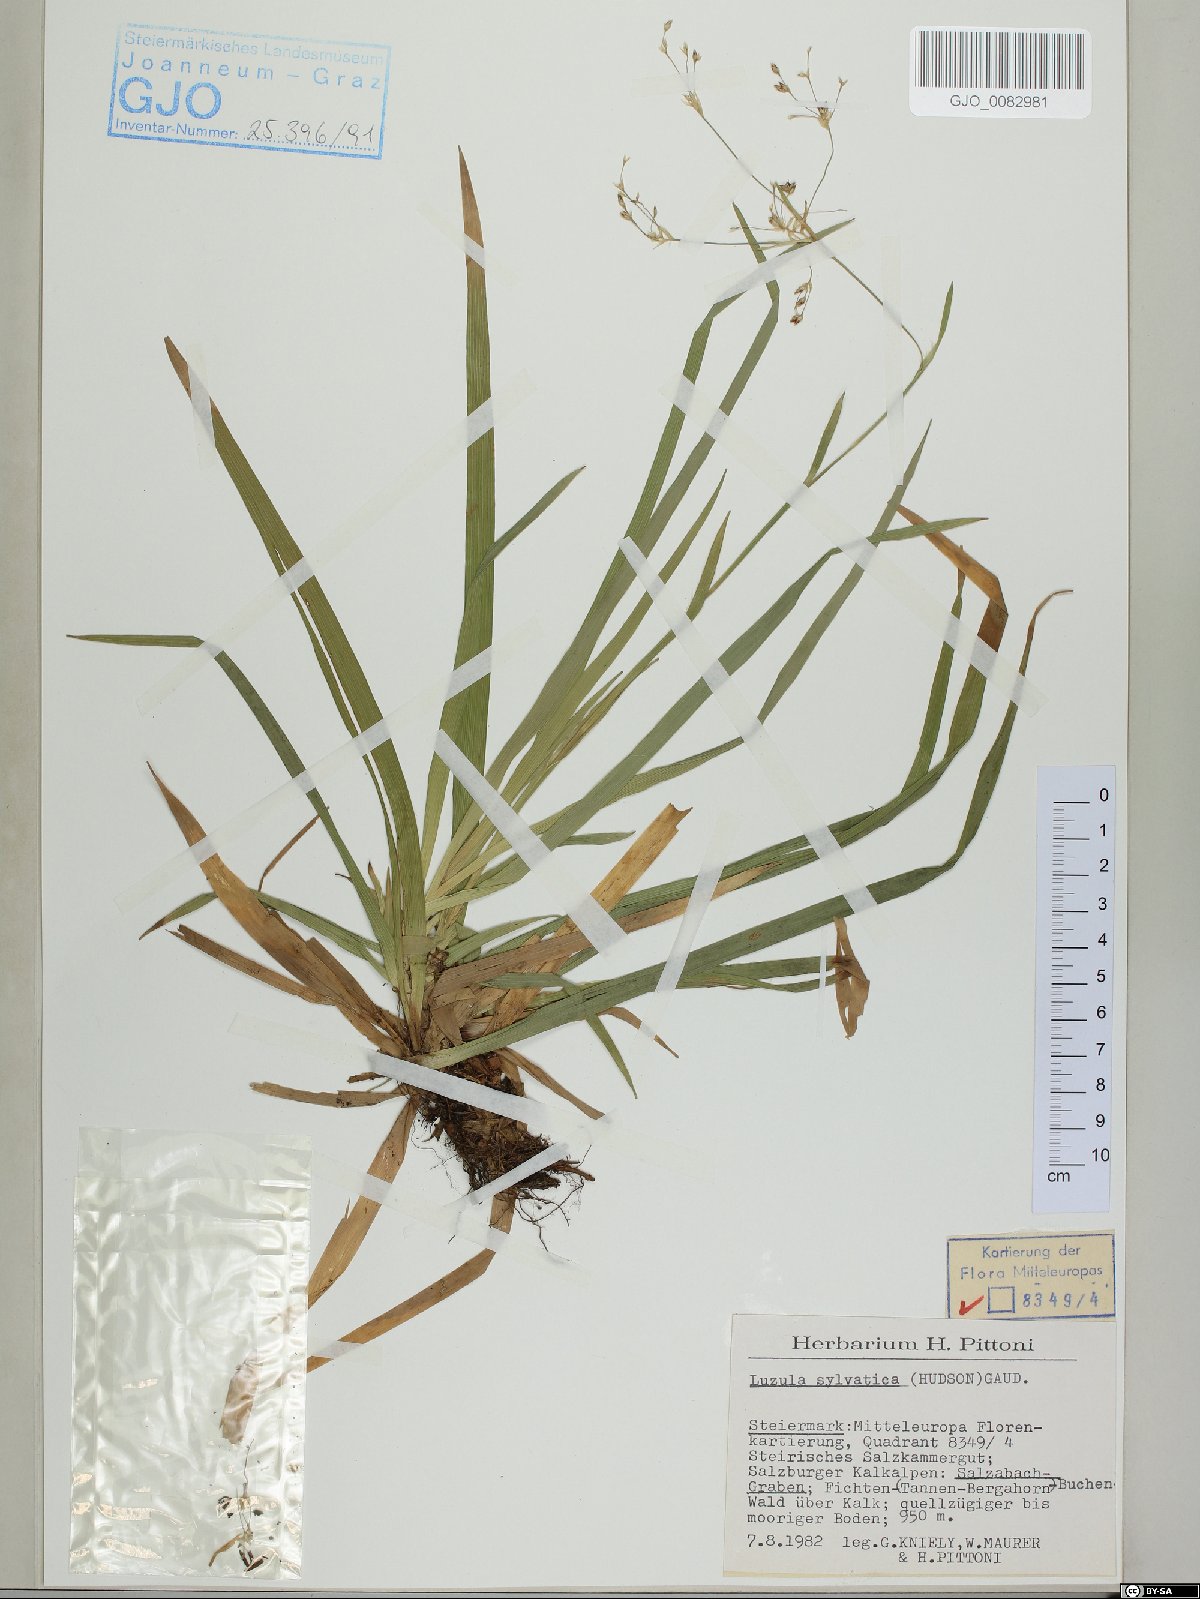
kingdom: Plantae
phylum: Tracheophyta
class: Liliopsida
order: Poales
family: Juncaceae
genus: Luzula
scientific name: Luzula sylvatica
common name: Great wood-rush
